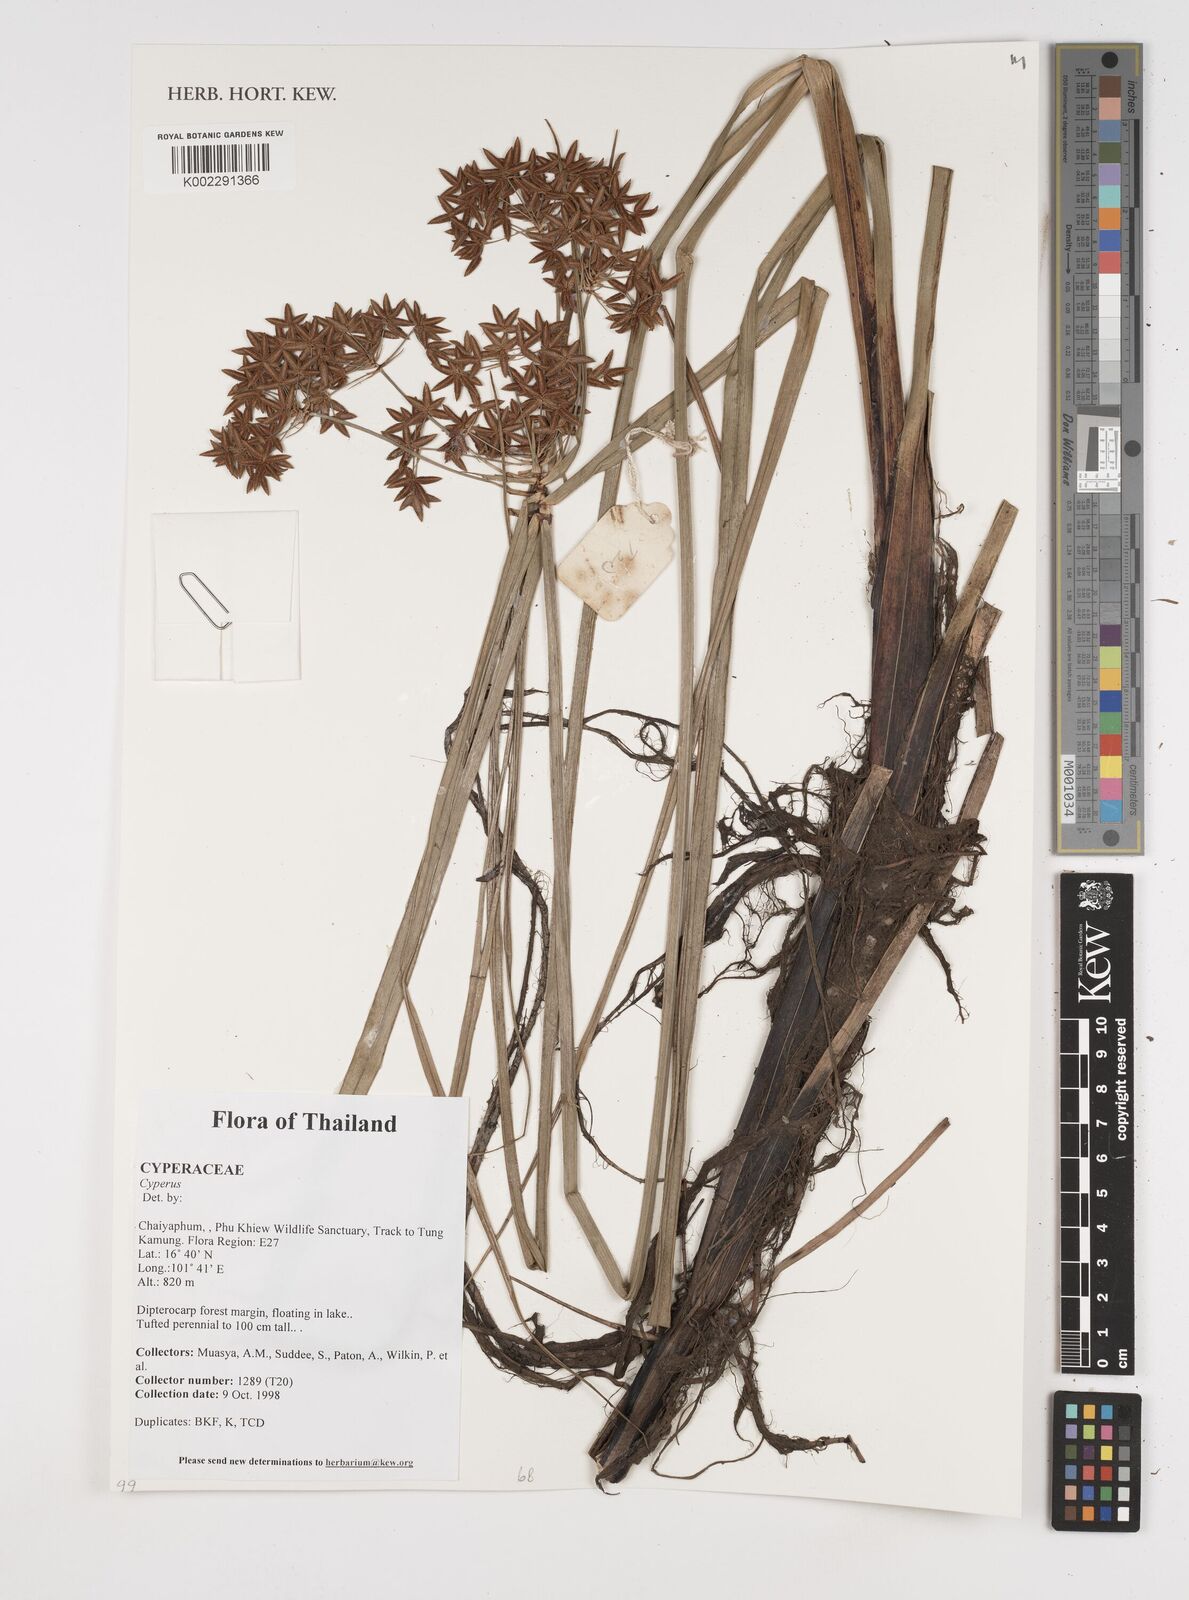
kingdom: Plantae
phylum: Tracheophyta
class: Liliopsida
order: Poales
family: Cyperaceae
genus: Cyperus
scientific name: Cyperus
